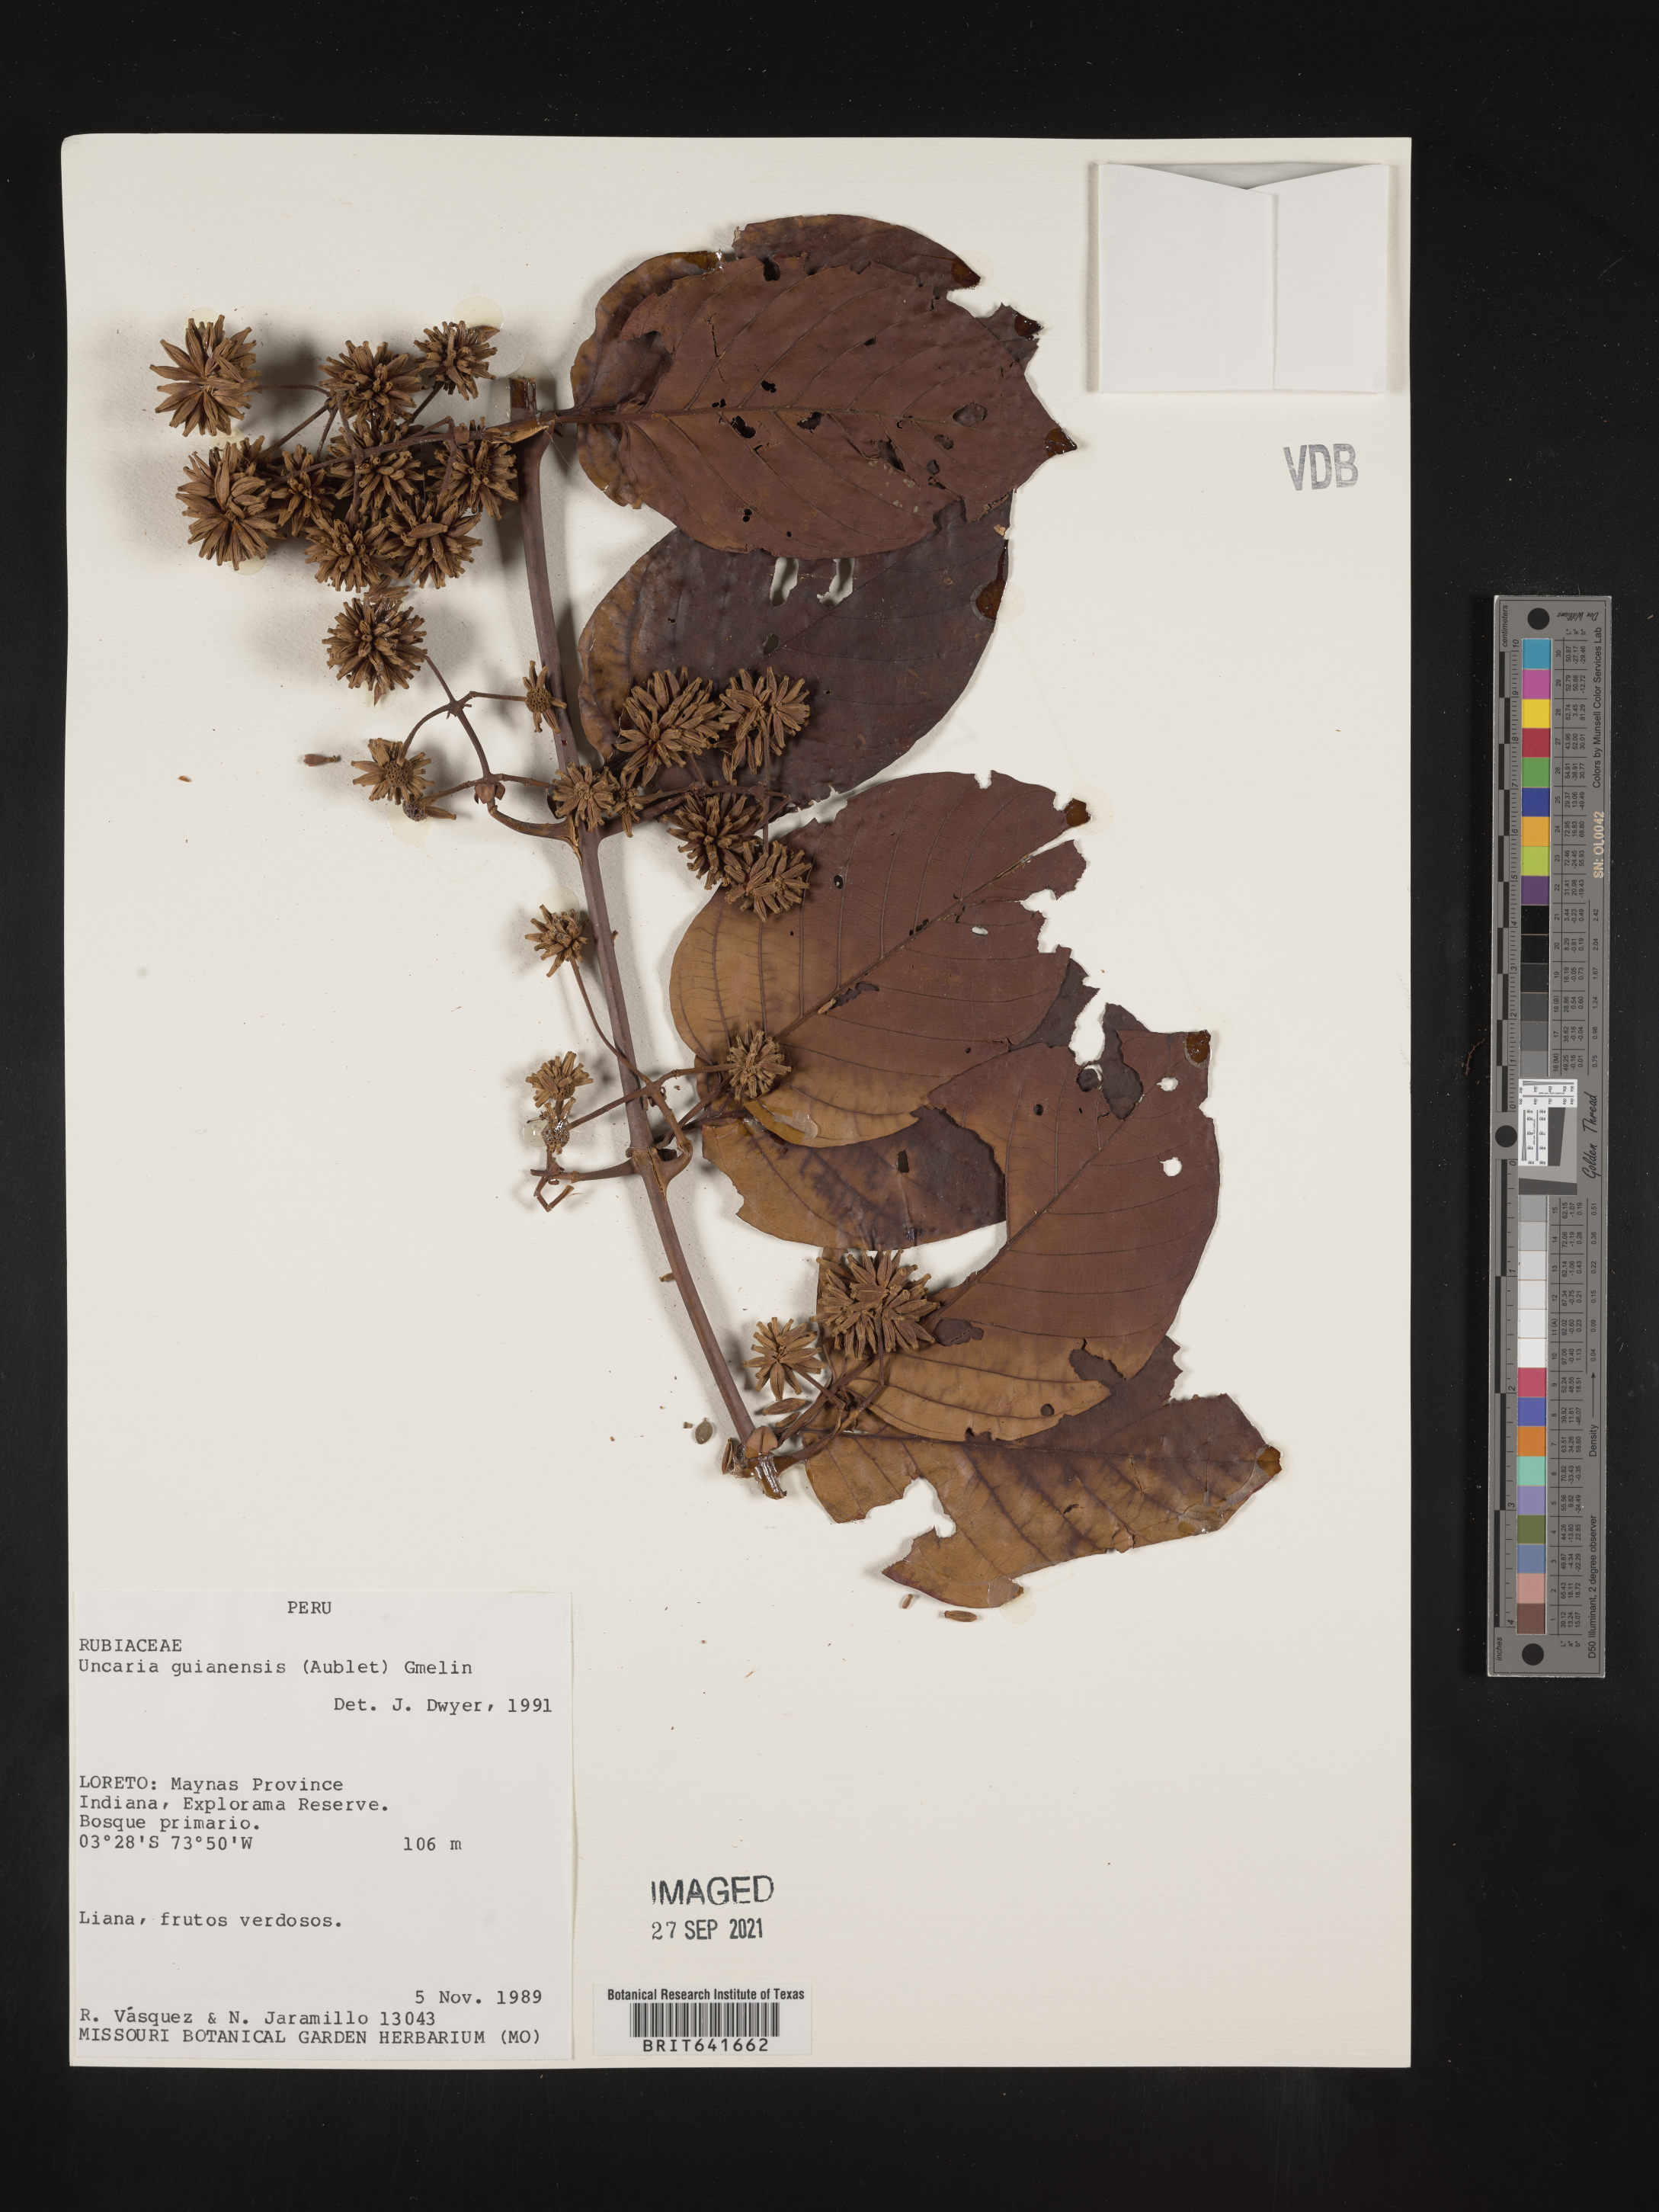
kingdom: Plantae
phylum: Tracheophyta
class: Magnoliopsida
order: Gentianales
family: Rubiaceae
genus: Uncaria
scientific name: Uncaria
